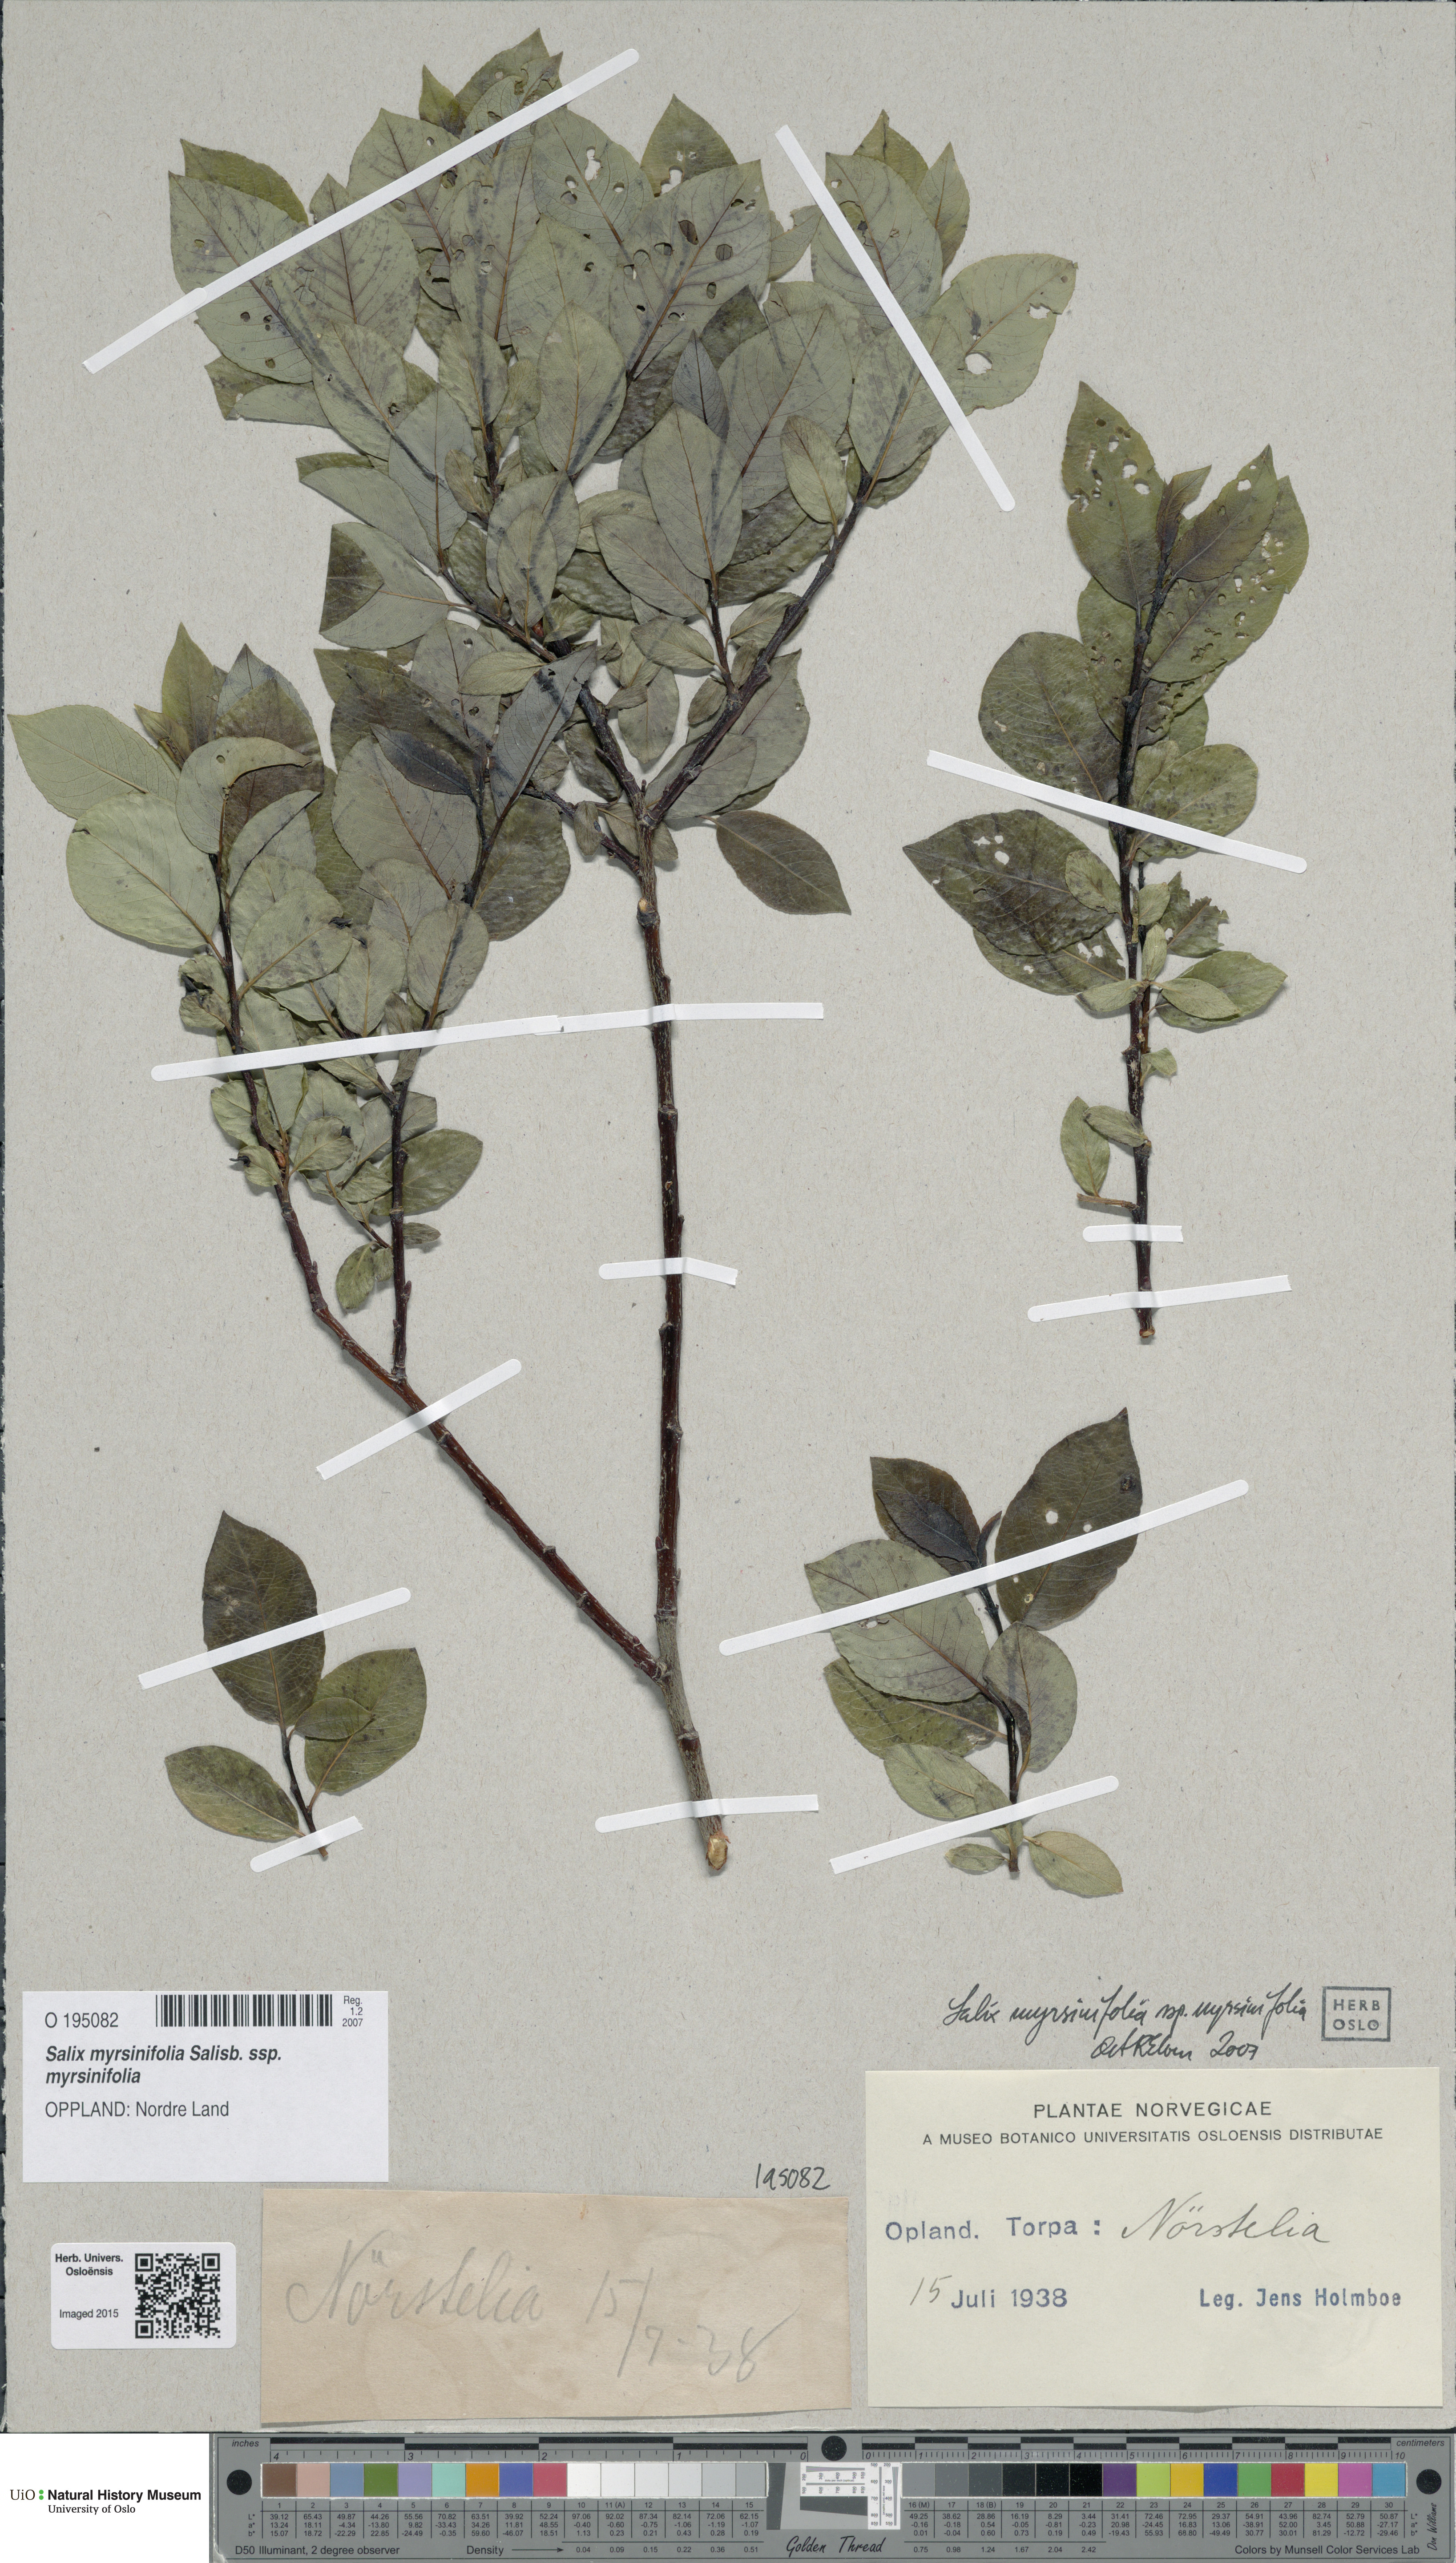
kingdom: Plantae
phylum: Tracheophyta
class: Magnoliopsida
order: Malpighiales
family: Salicaceae
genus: Salix
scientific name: Salix myrsinifolia
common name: Dark-leaved willow
